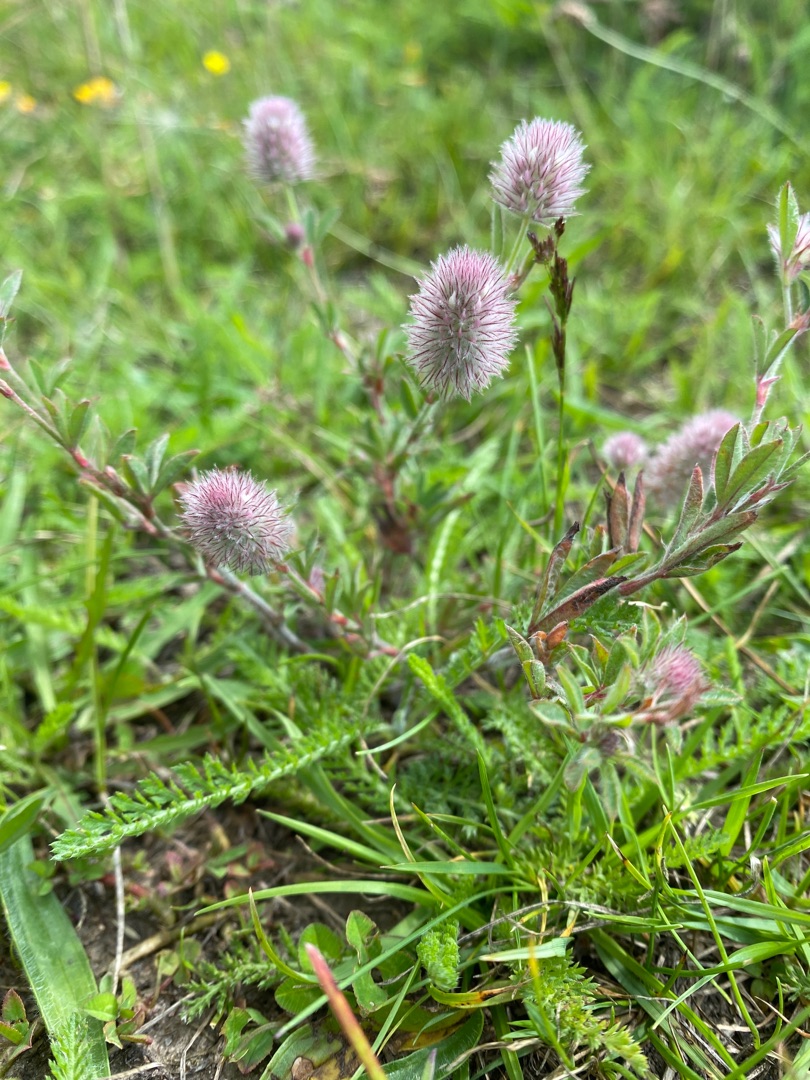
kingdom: Plantae
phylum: Tracheophyta
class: Magnoliopsida
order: Fabales
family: Fabaceae
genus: Trifolium
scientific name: Trifolium arvense
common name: Hare-kløver
